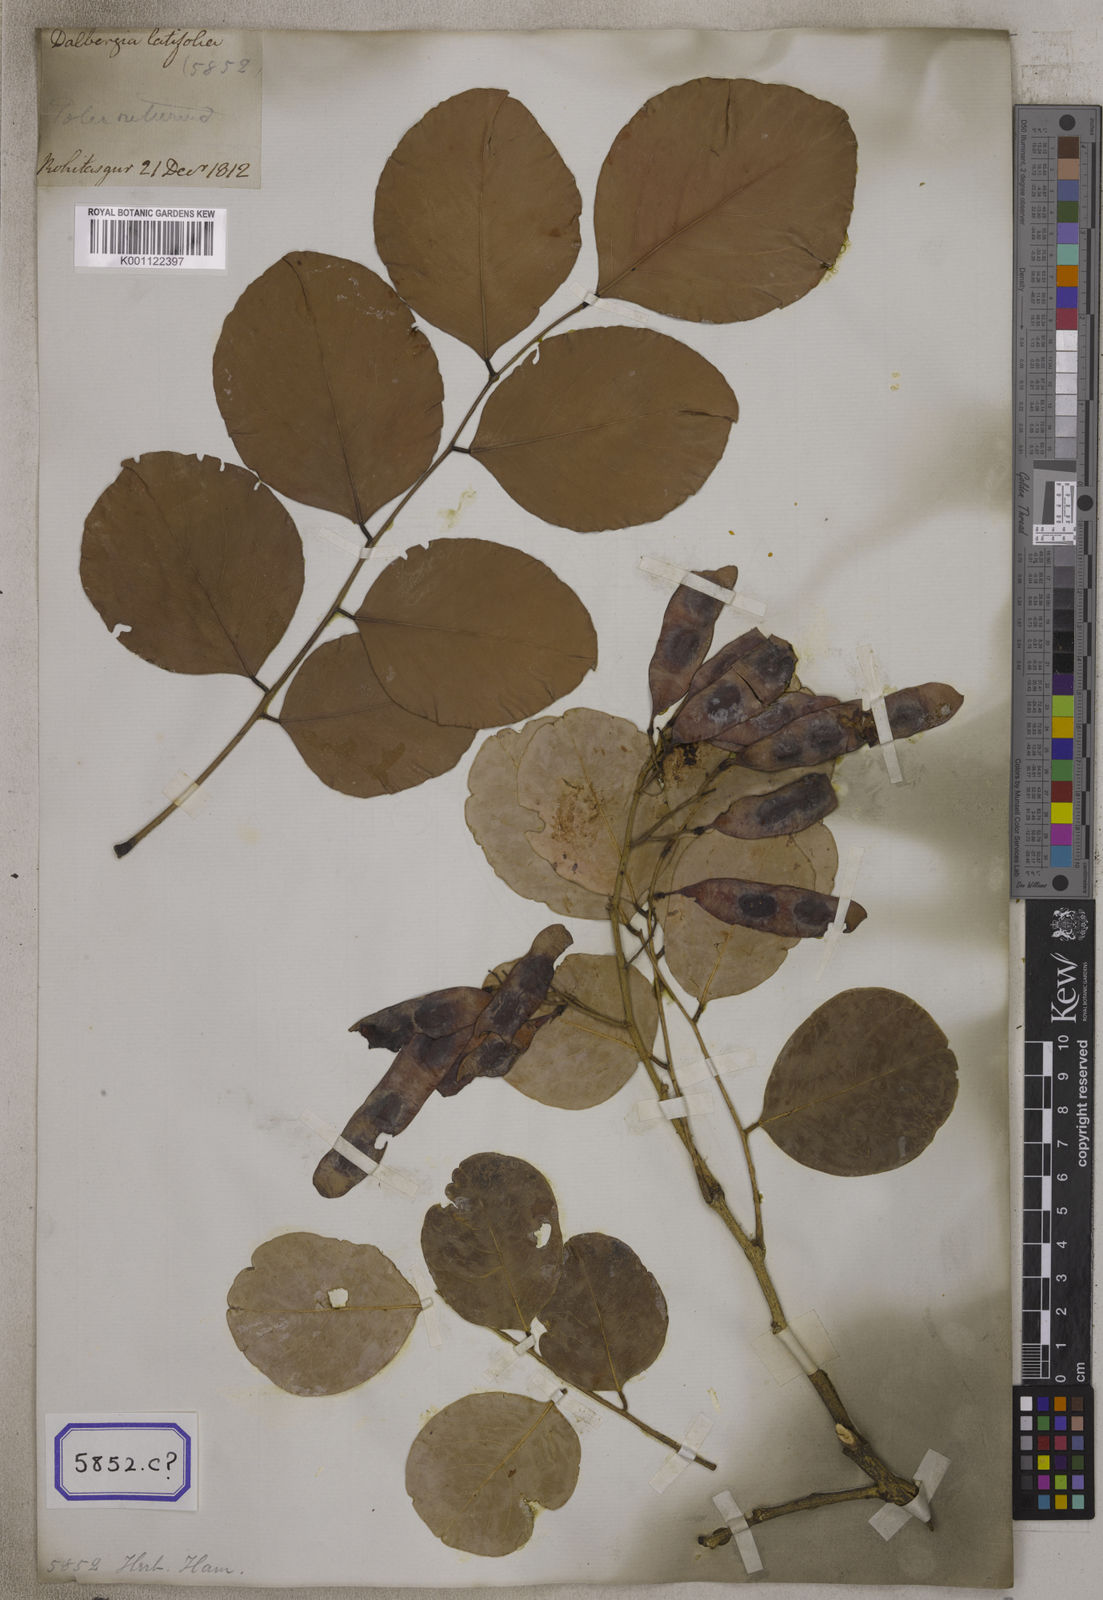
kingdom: Plantae
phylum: Tracheophyta
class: Magnoliopsida
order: Fabales
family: Fabaceae
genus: Dalbergia
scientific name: Dalbergia latifolia
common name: Bombay blackwood
